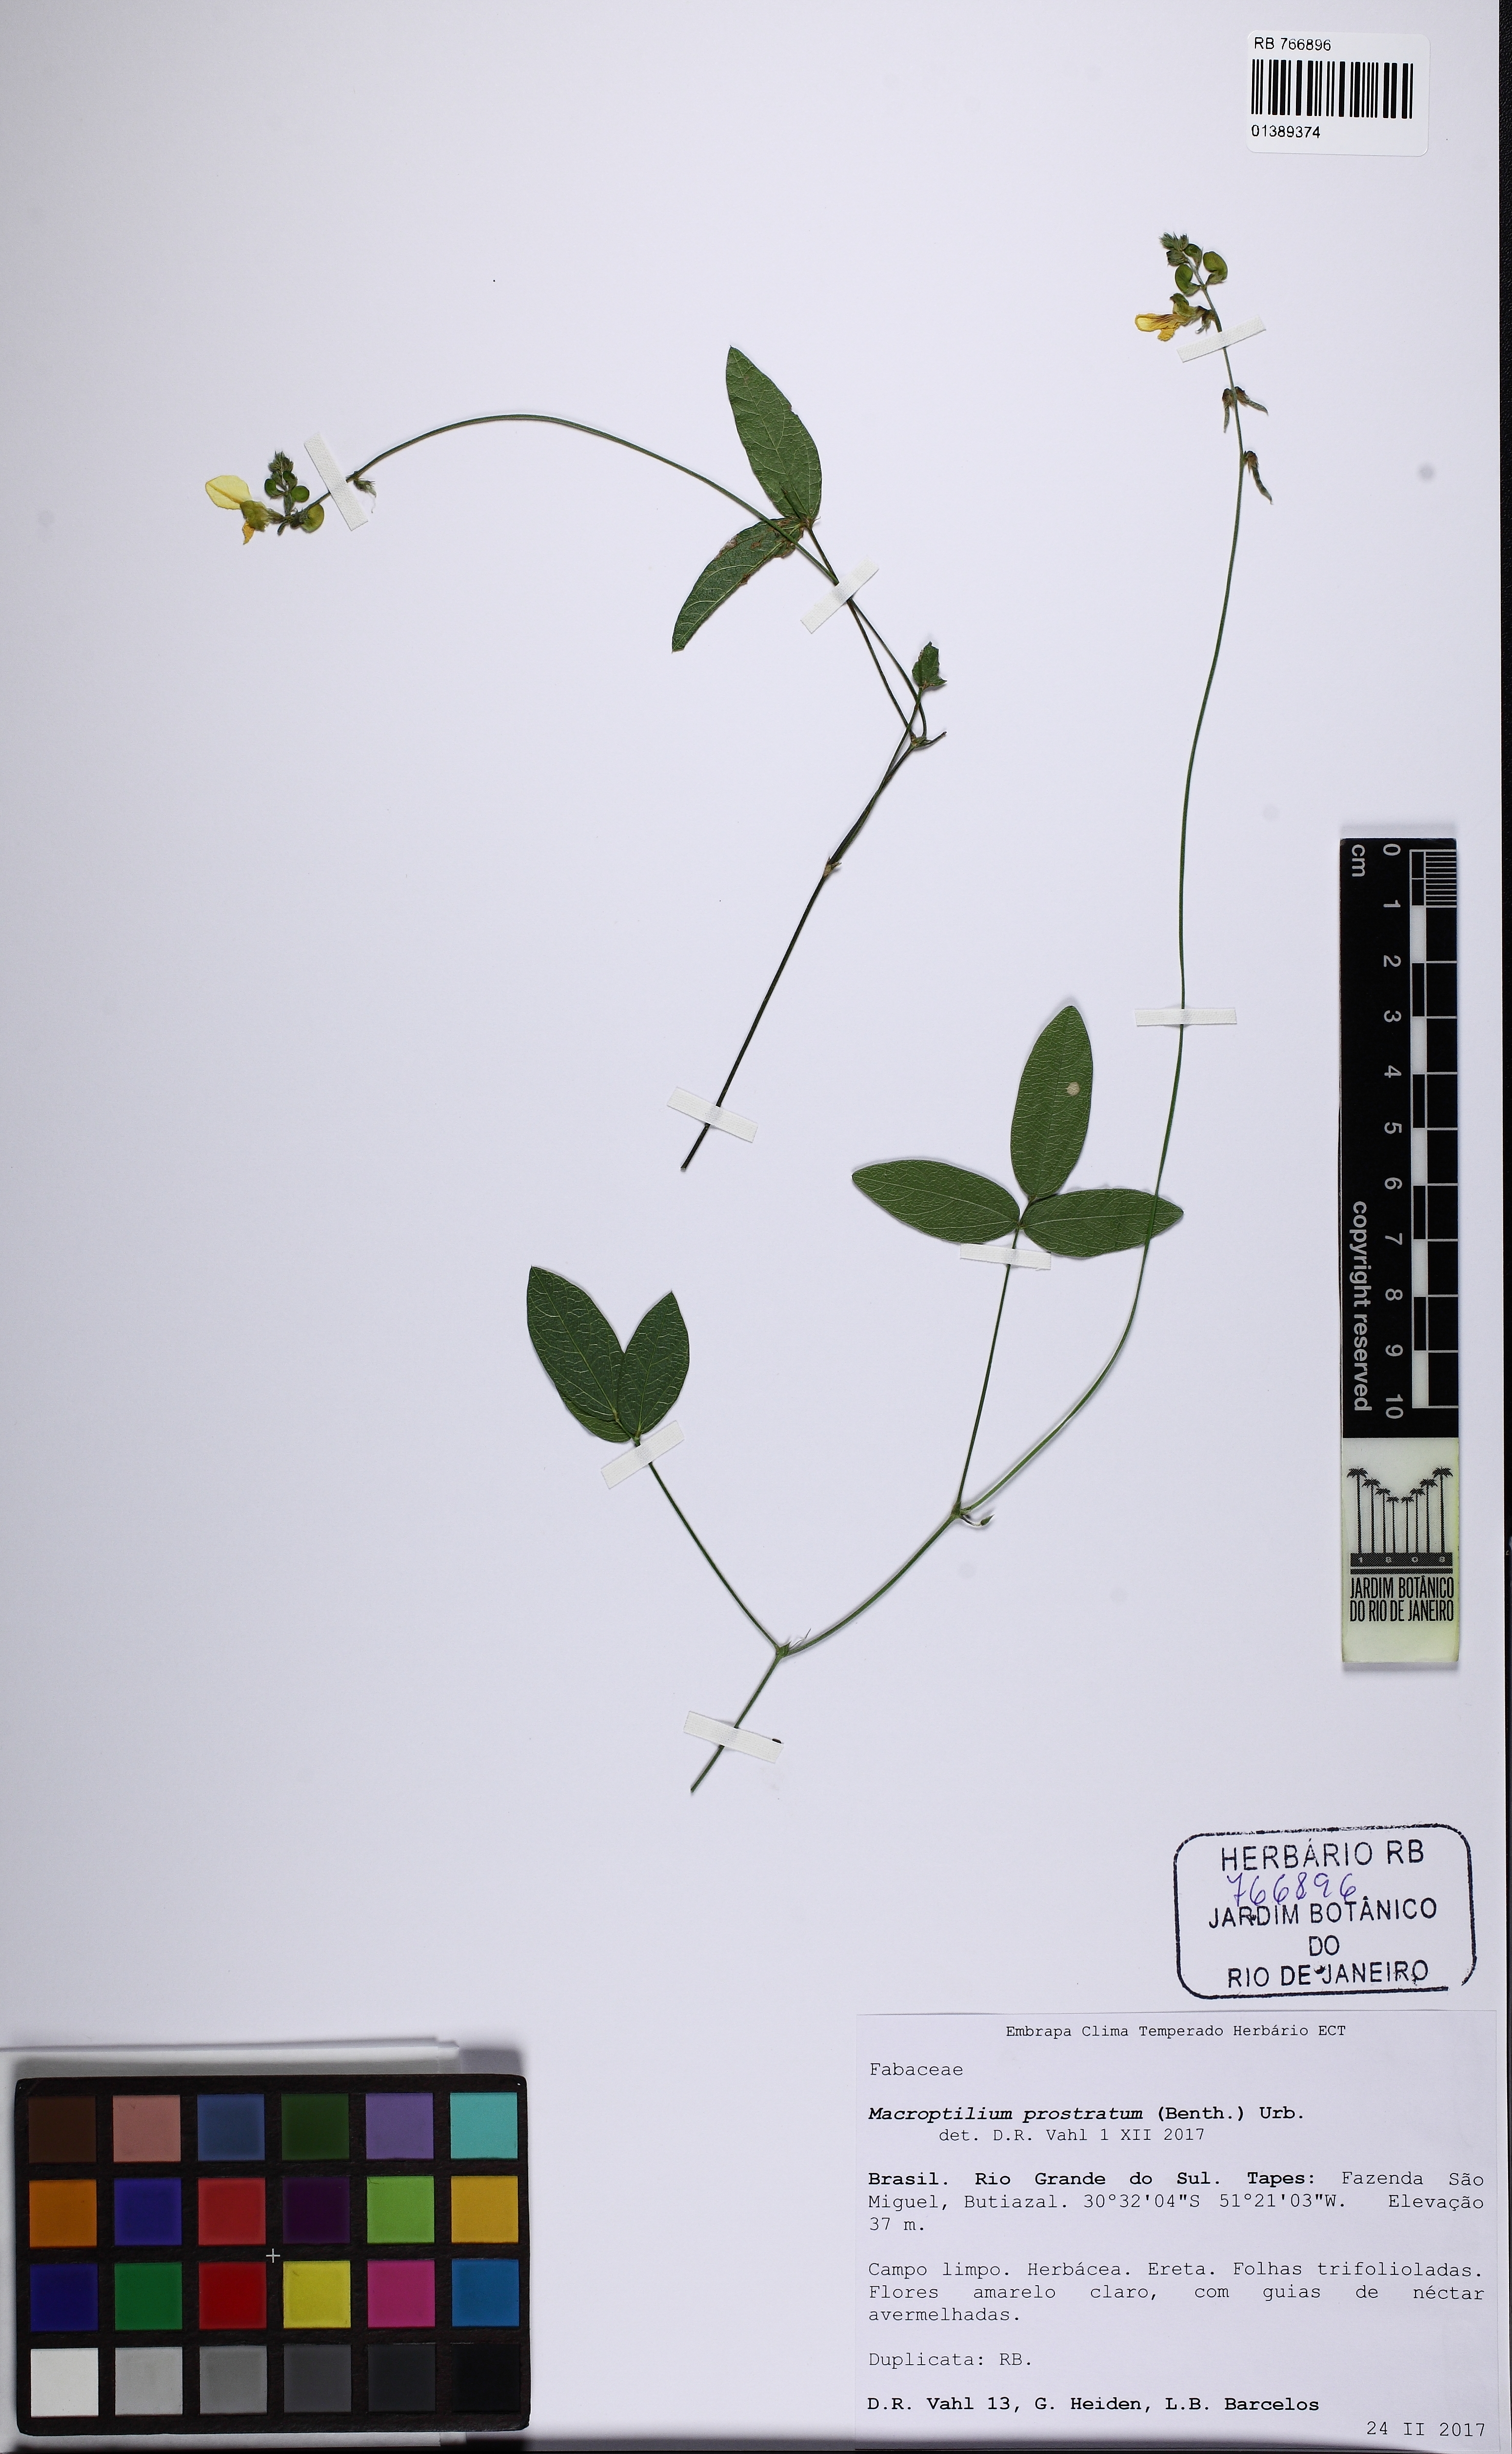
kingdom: Plantae
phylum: Tracheophyta
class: Magnoliopsida
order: Fabales
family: Fabaceae
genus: Macroptilium
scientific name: Macroptilium prostratum
